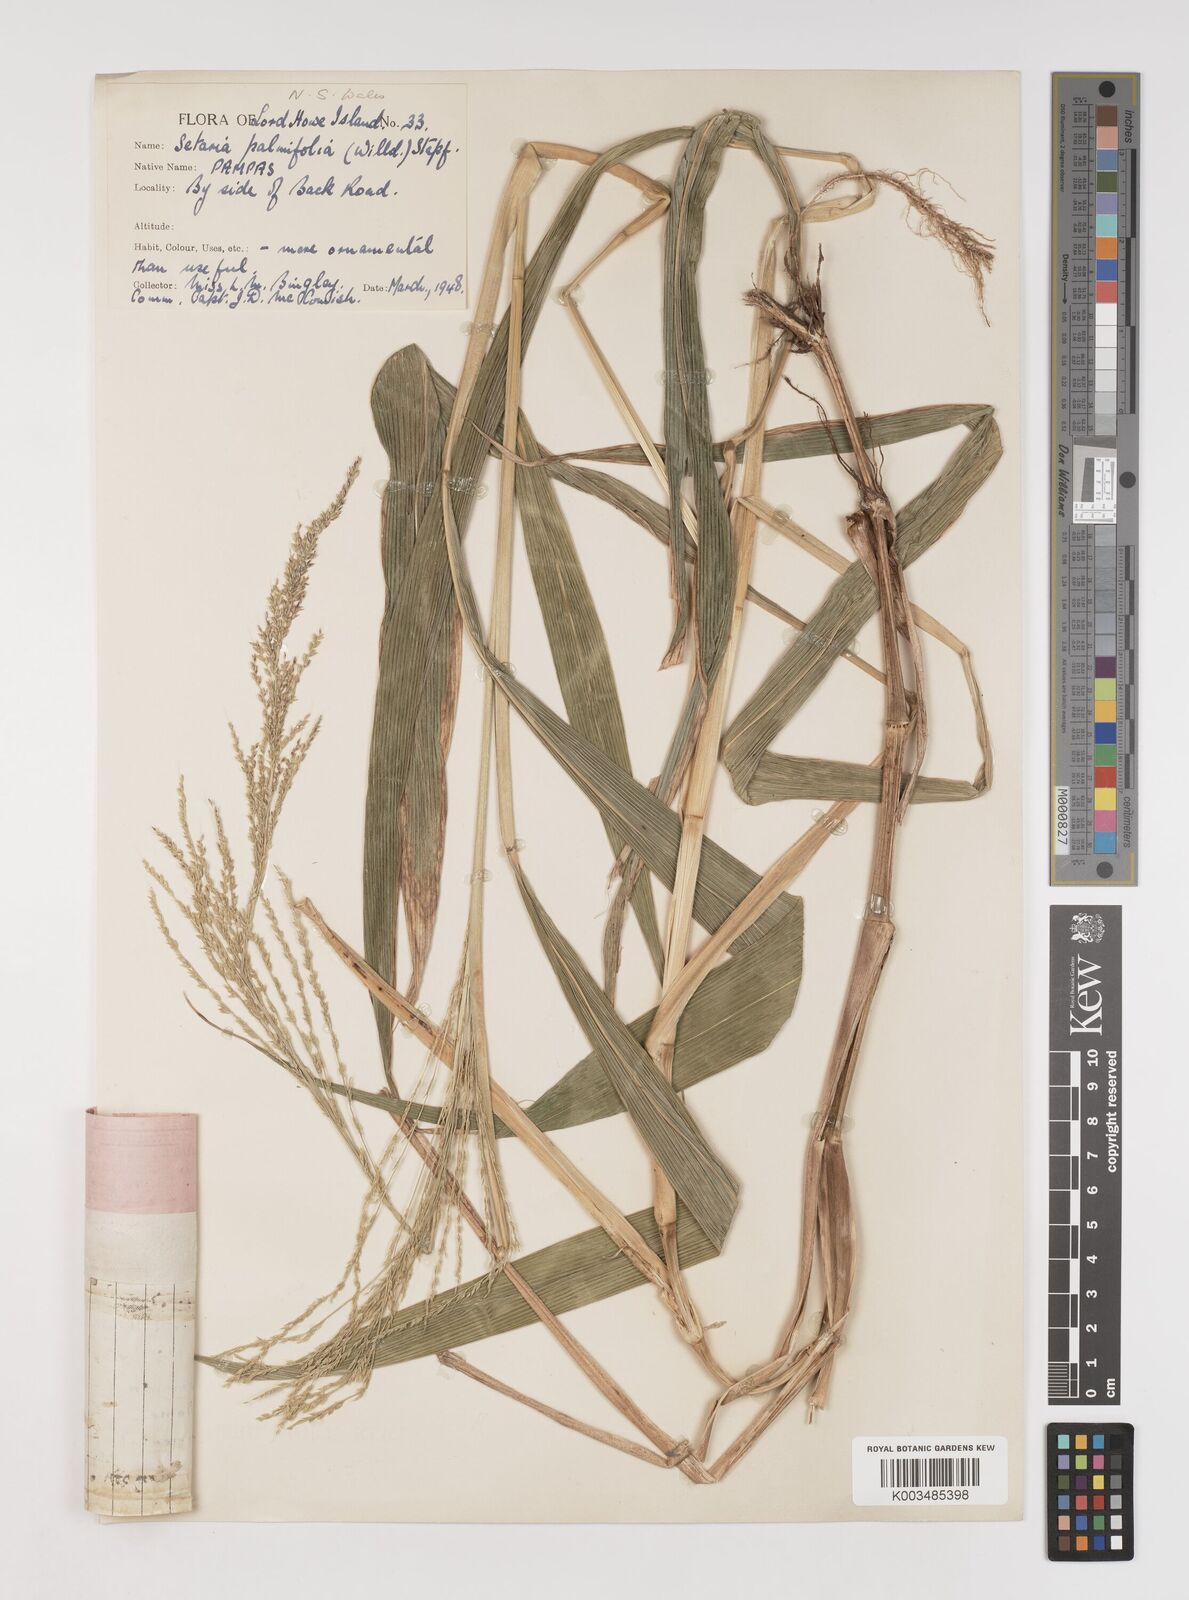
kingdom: Plantae
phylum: Tracheophyta
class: Liliopsida
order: Poales
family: Poaceae
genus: Setaria
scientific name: Setaria palmifolia
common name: Broadleaved bristlegrass
